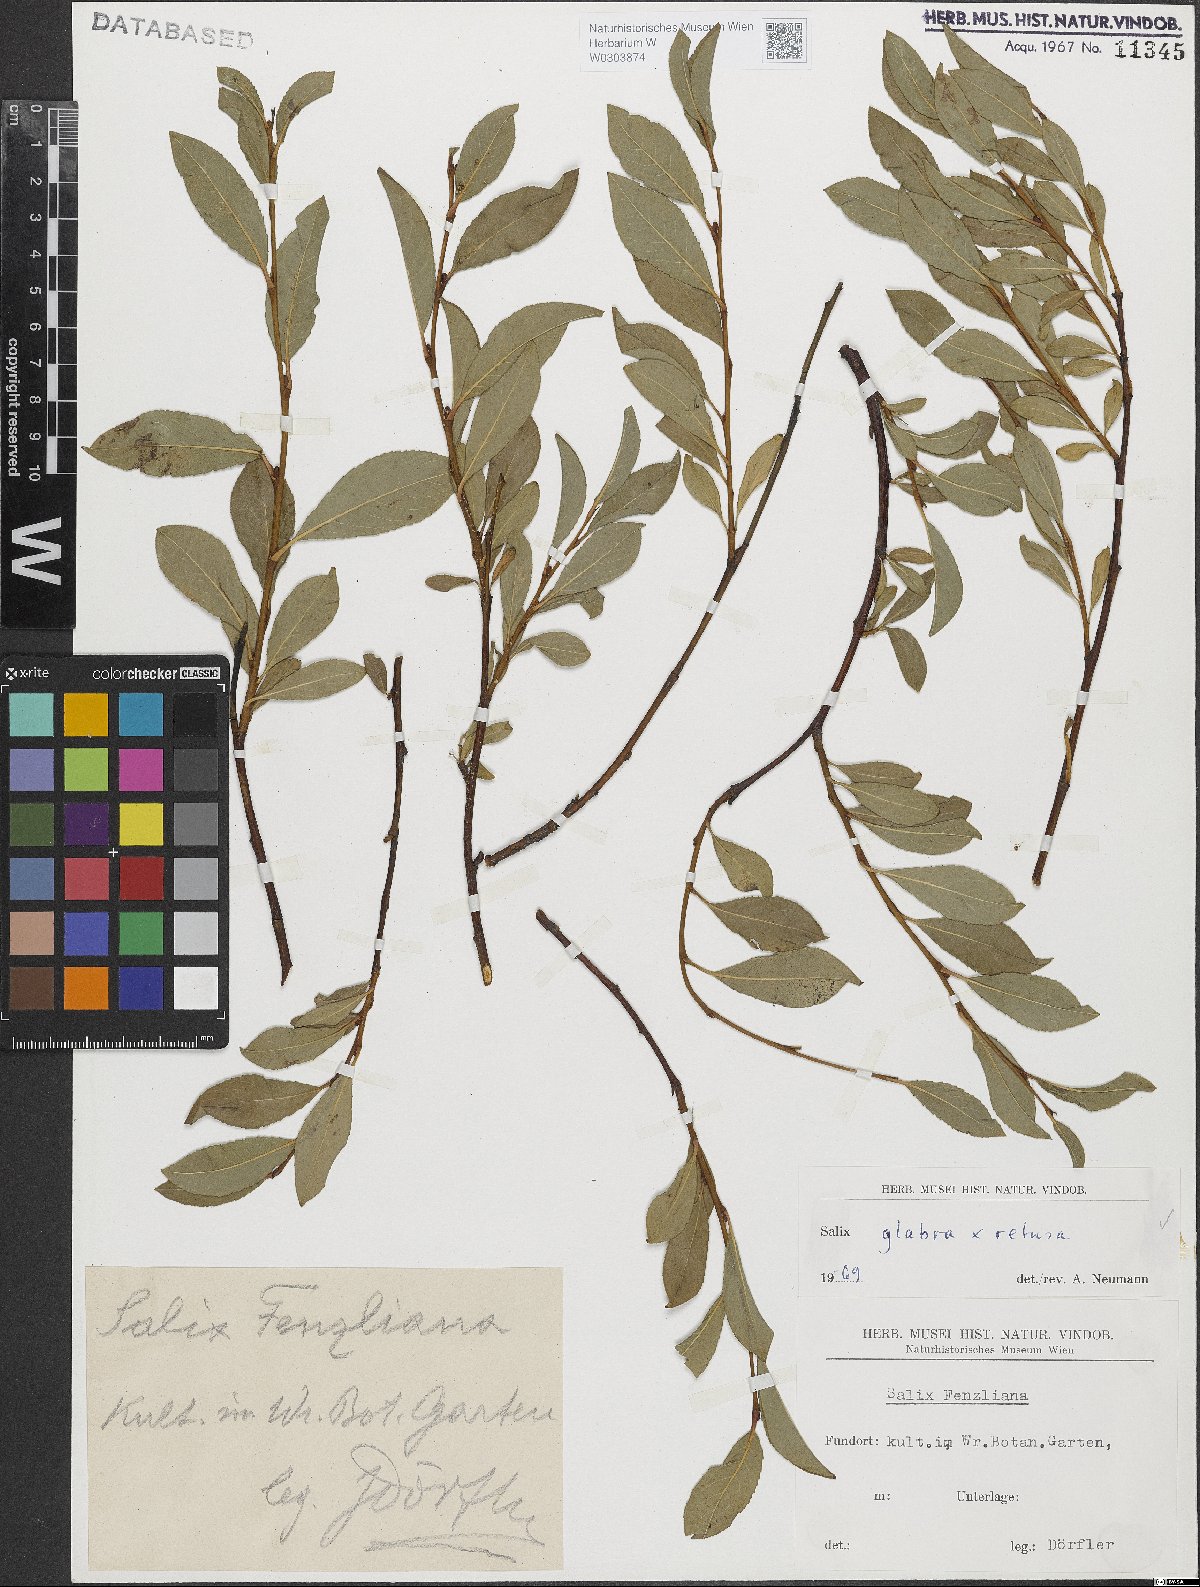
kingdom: Plantae
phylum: Tracheophyta
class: Magnoliopsida
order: Malpighiales
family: Salicaceae
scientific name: Salicaceae
